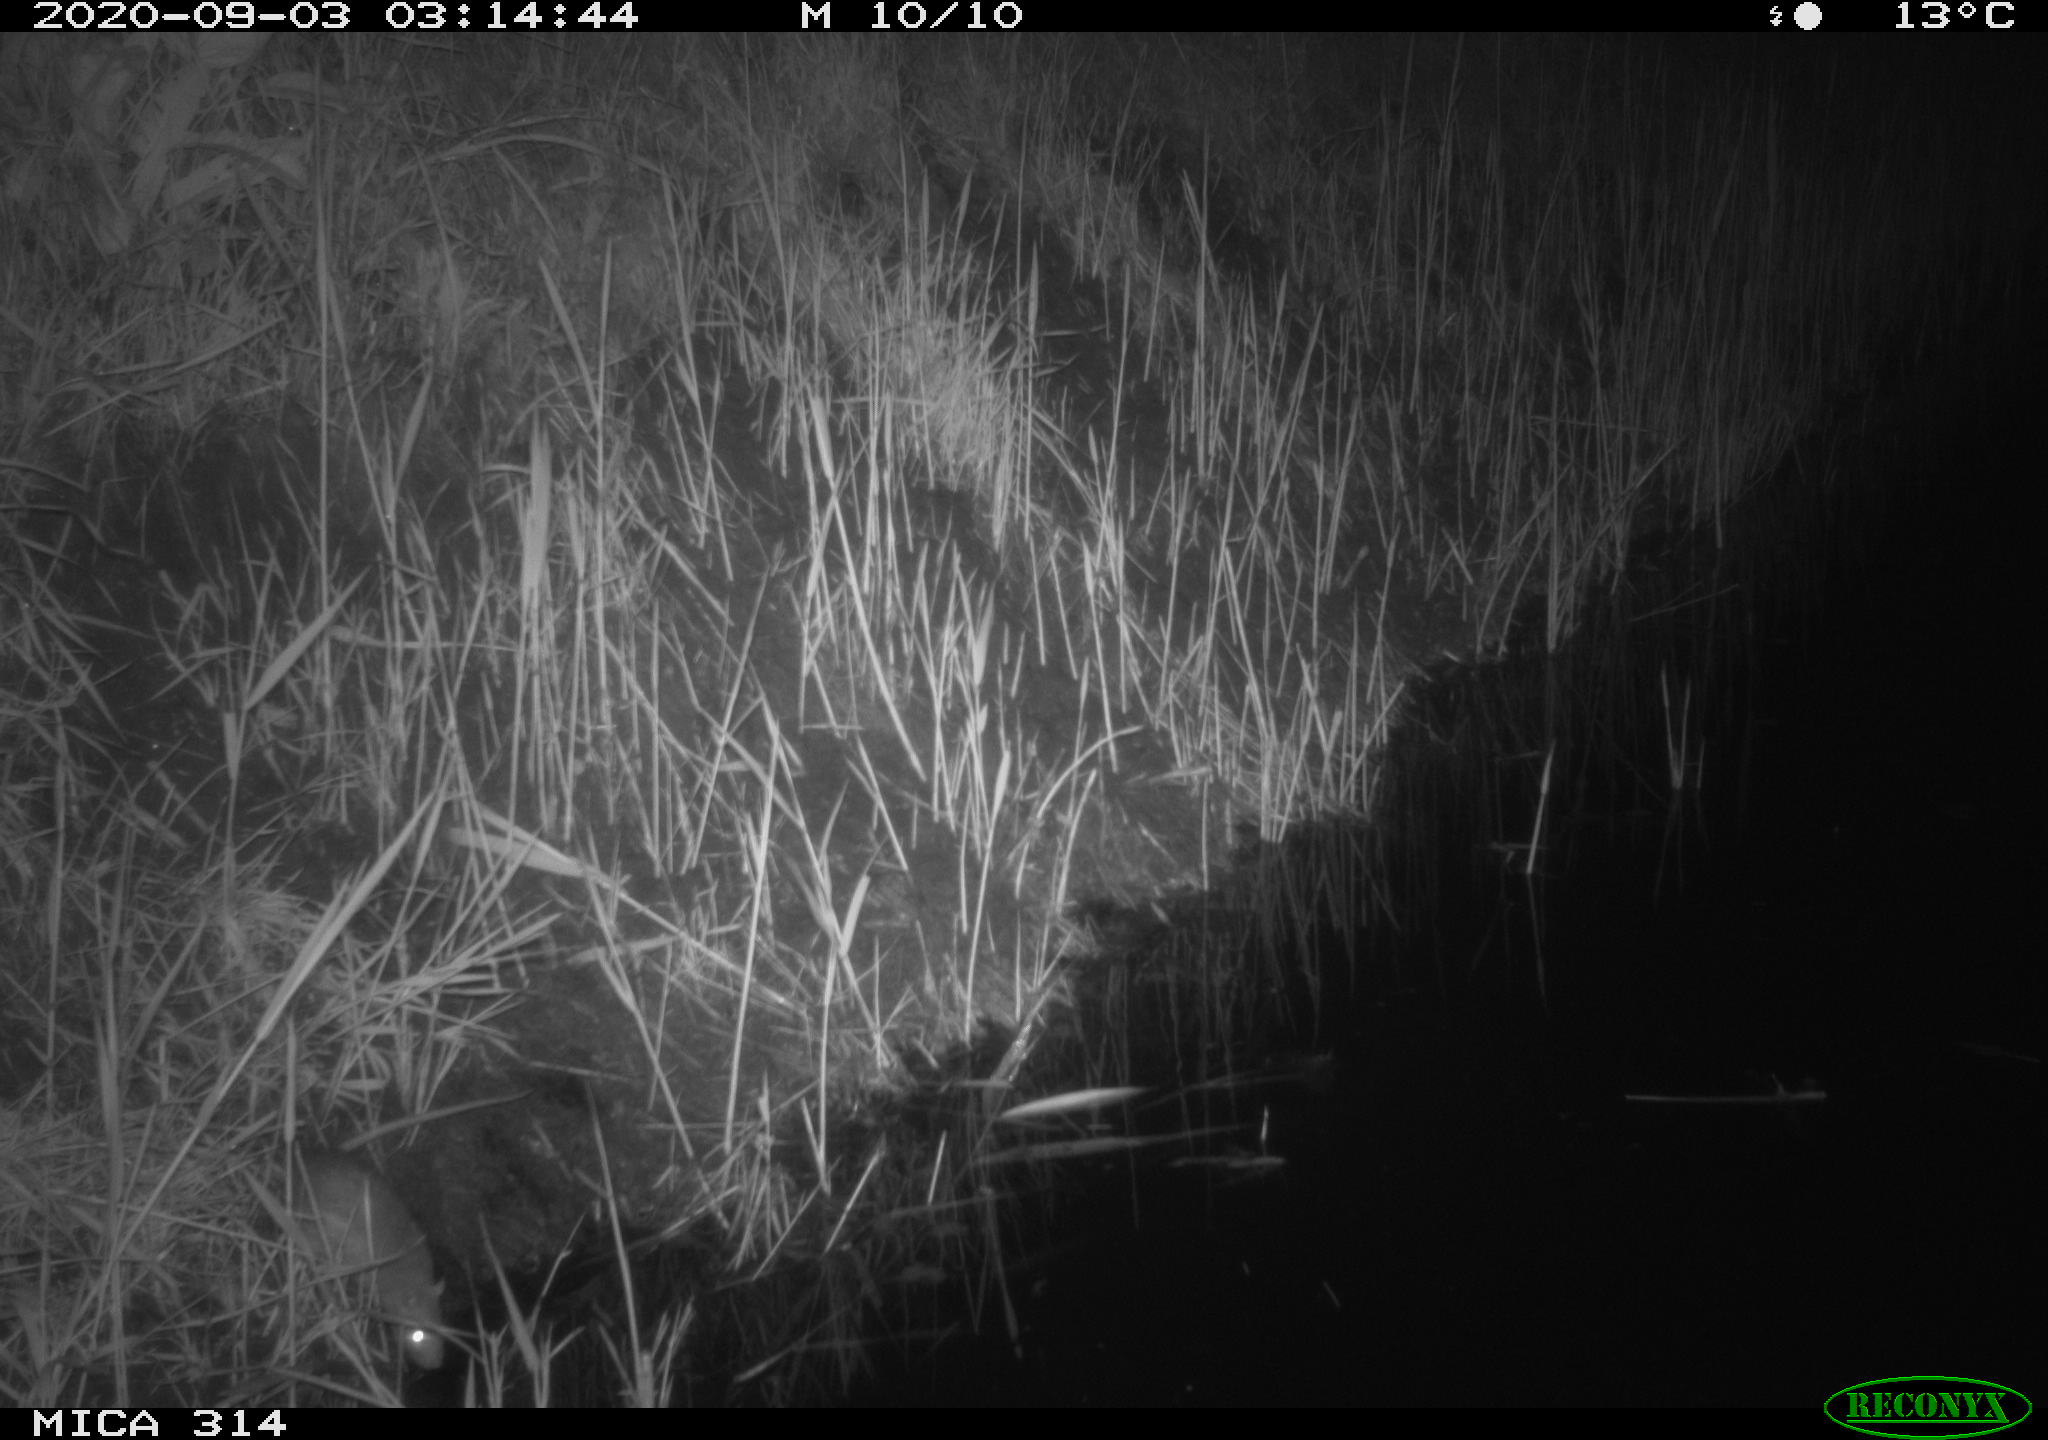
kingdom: Animalia
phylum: Chordata
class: Mammalia
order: Rodentia
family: Muridae
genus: Rattus
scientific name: Rattus norvegicus
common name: Brown rat
